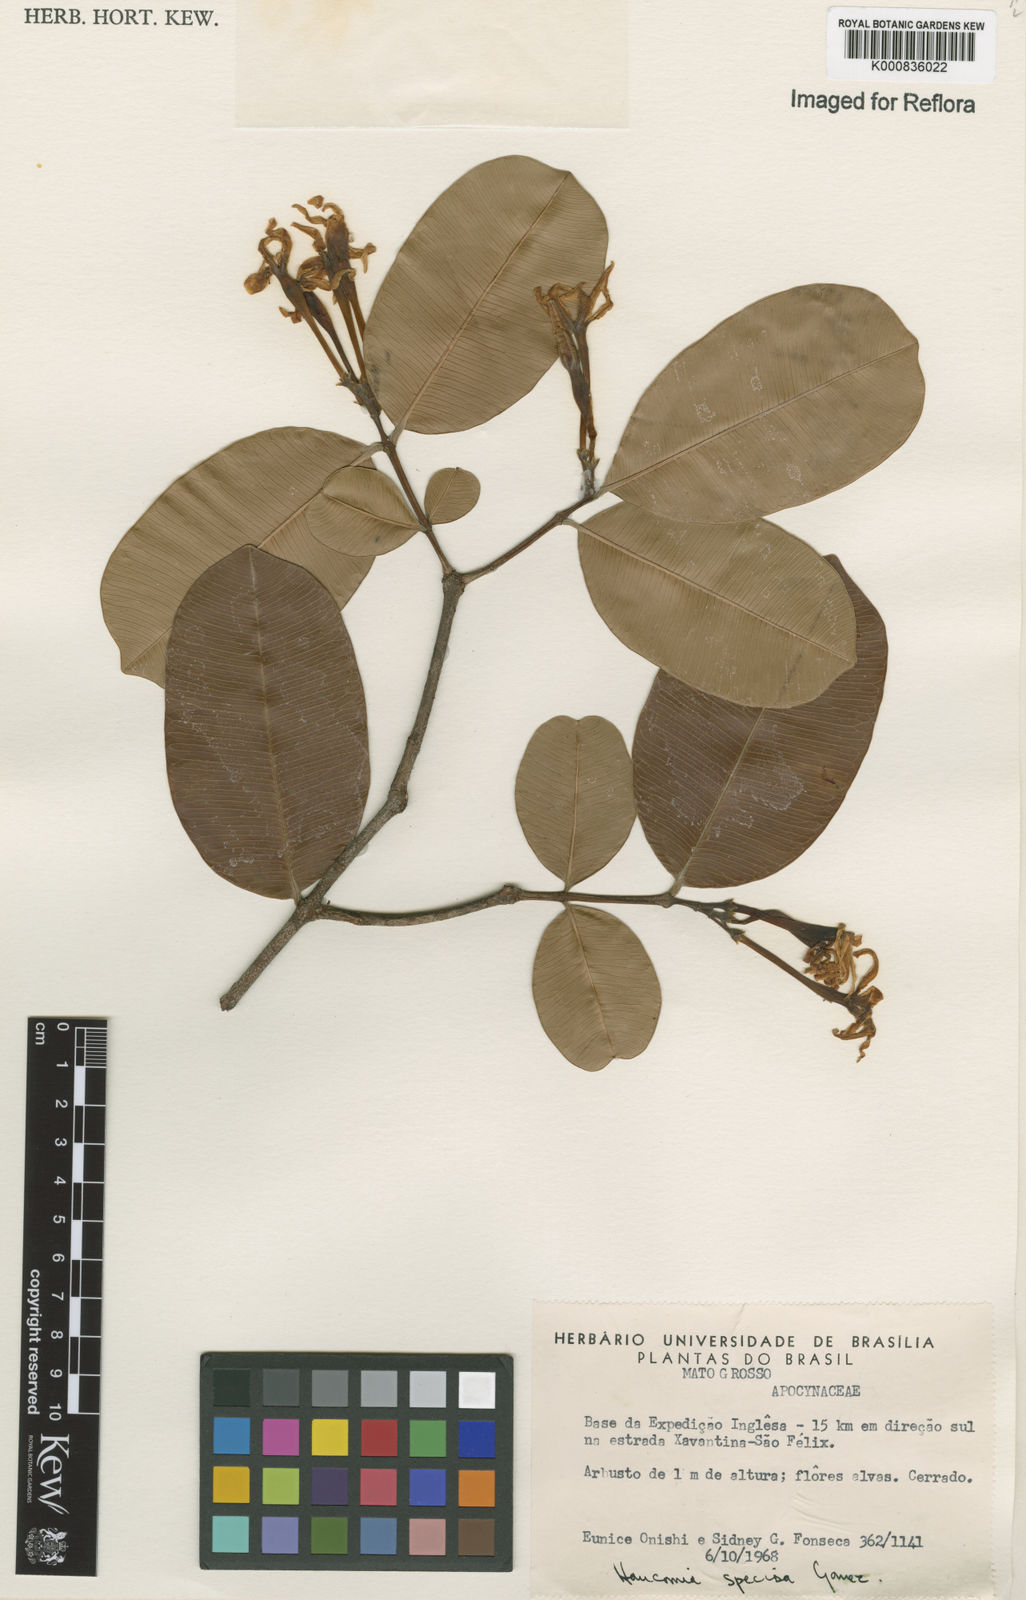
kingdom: Plantae
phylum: Tracheophyta
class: Magnoliopsida
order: Gentianales
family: Apocynaceae
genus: Hancornia
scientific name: Hancornia speciosa
